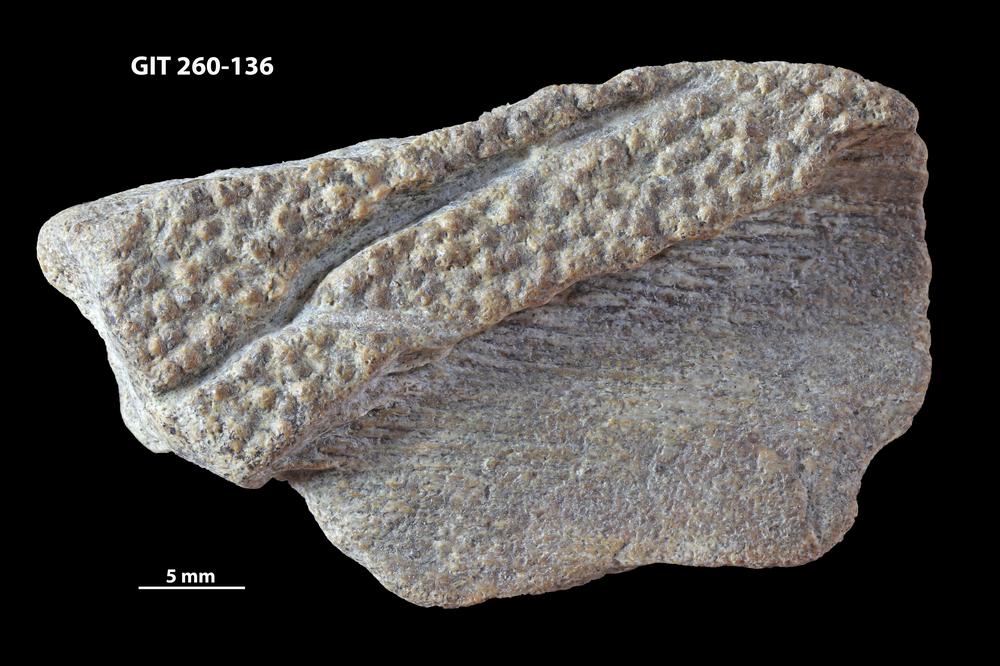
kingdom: Animalia
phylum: Chordata
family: Homostiidae
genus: Homostius
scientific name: Homostius
